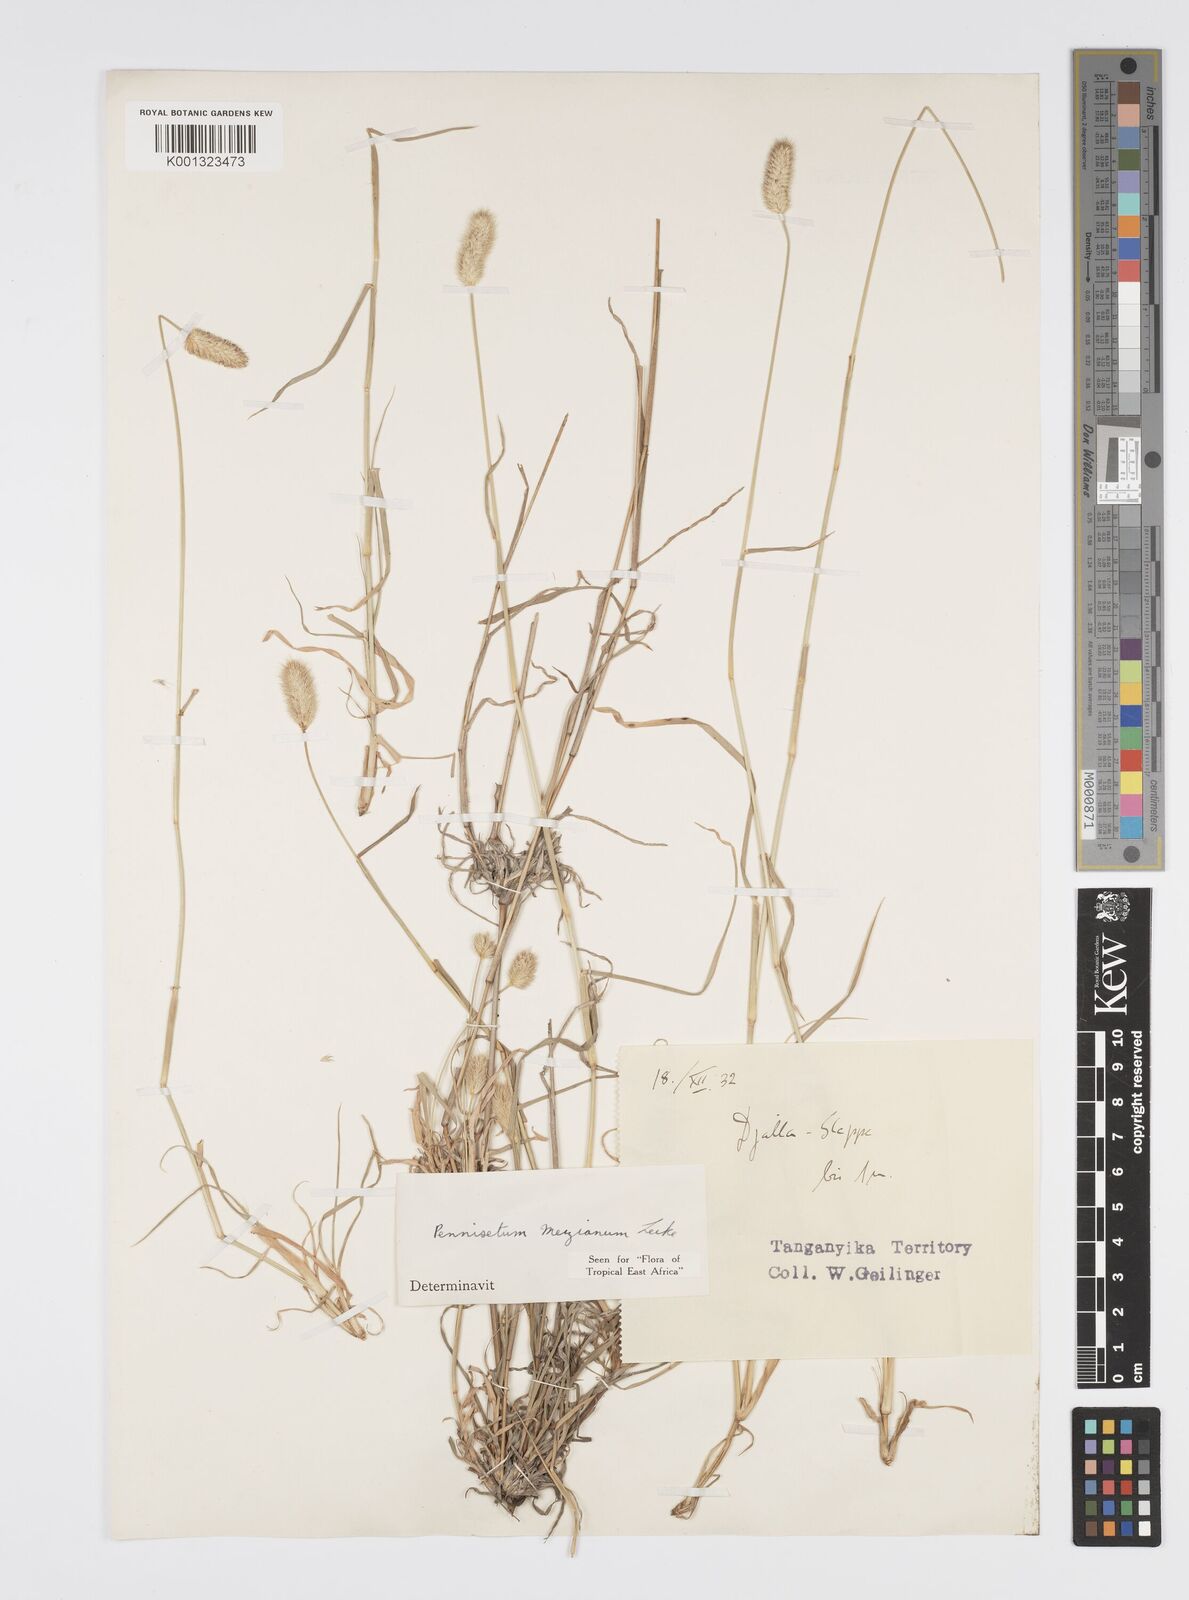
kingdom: Plantae
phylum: Tracheophyta
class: Liliopsida
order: Poales
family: Poaceae
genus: Cenchrus
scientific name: Cenchrus mezianus
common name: Bamboo grass
